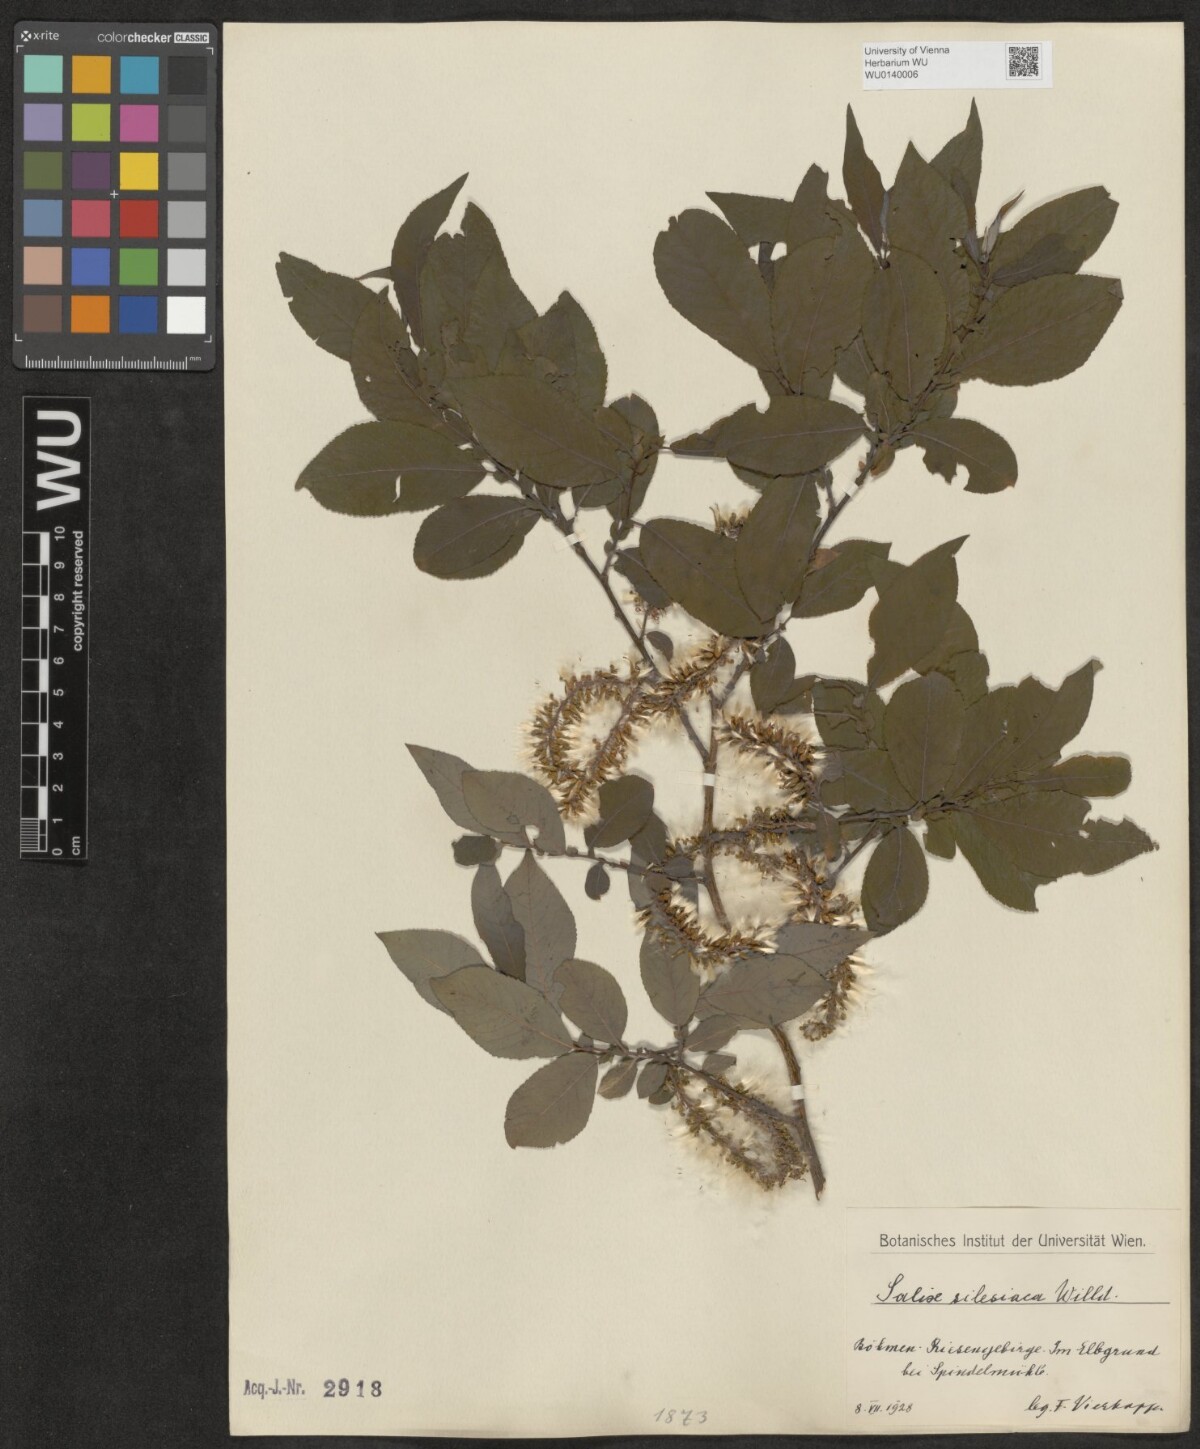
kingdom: Plantae
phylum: Tracheophyta
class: Magnoliopsida
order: Malpighiales
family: Salicaceae
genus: Salix
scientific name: Salix silesiaca
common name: Silesian willow
